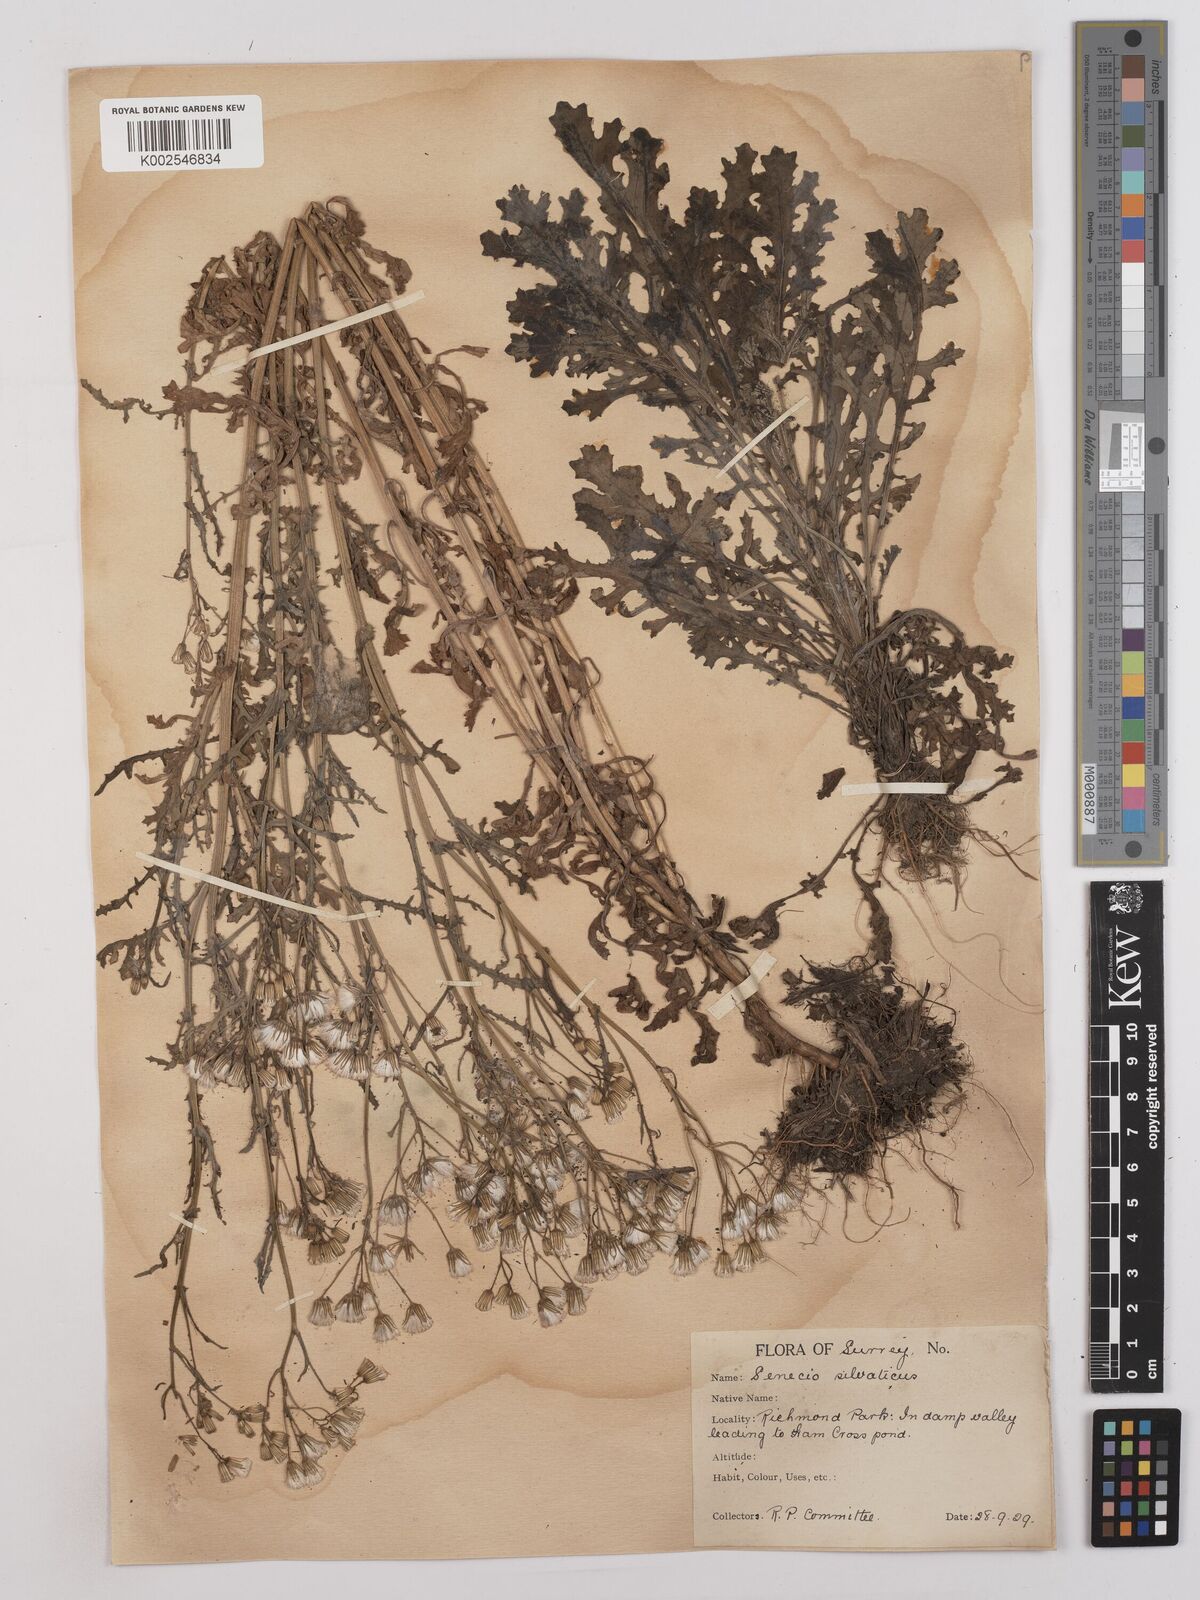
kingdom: Plantae
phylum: Tracheophyta
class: Magnoliopsida
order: Asterales
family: Asteraceae
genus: Senecio
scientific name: Senecio sylvaticus
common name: Woodland ragwort
